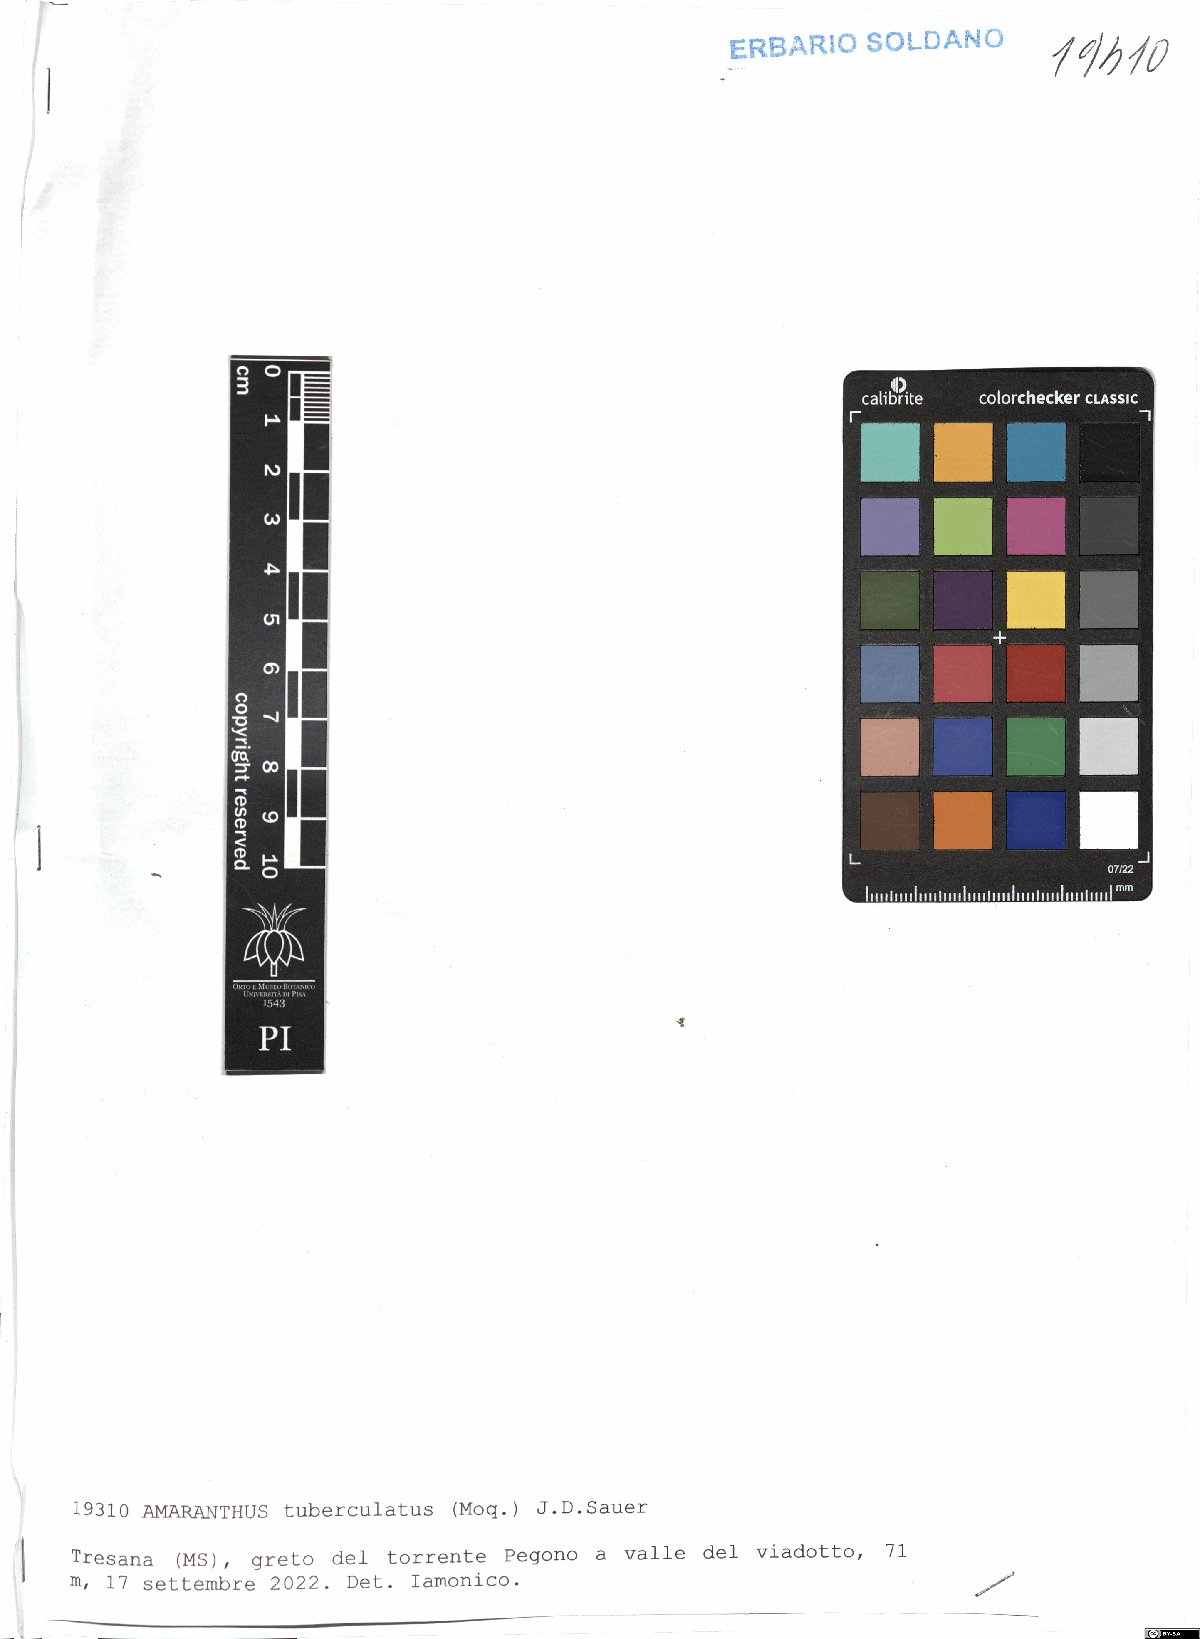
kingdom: Plantae
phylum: Tracheophyta
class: Magnoliopsida
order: Caryophyllales
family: Amaranthaceae
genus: Amaranthus
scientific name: Amaranthus tuberculatus
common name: Rough-fruit amaranth
